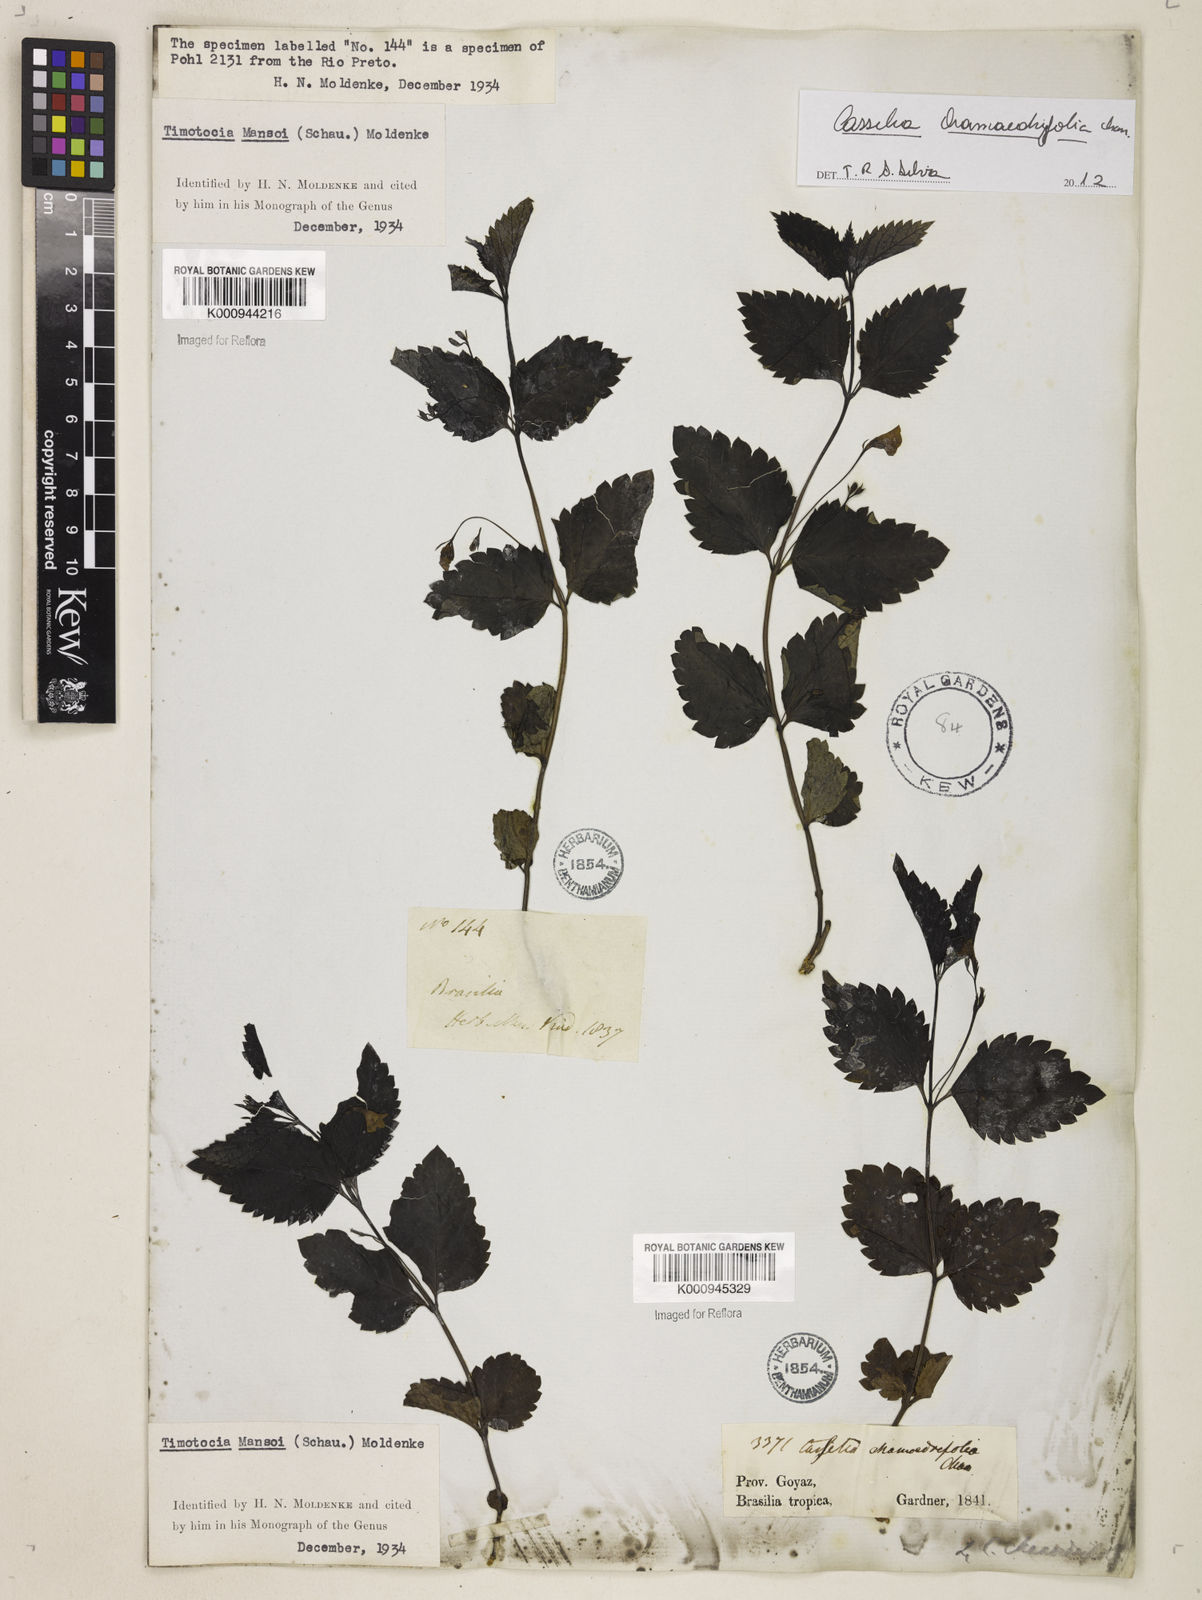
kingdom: Plantae
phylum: Tracheophyta
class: Magnoliopsida
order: Lamiales
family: Verbenaceae
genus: Casselia
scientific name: Casselia
